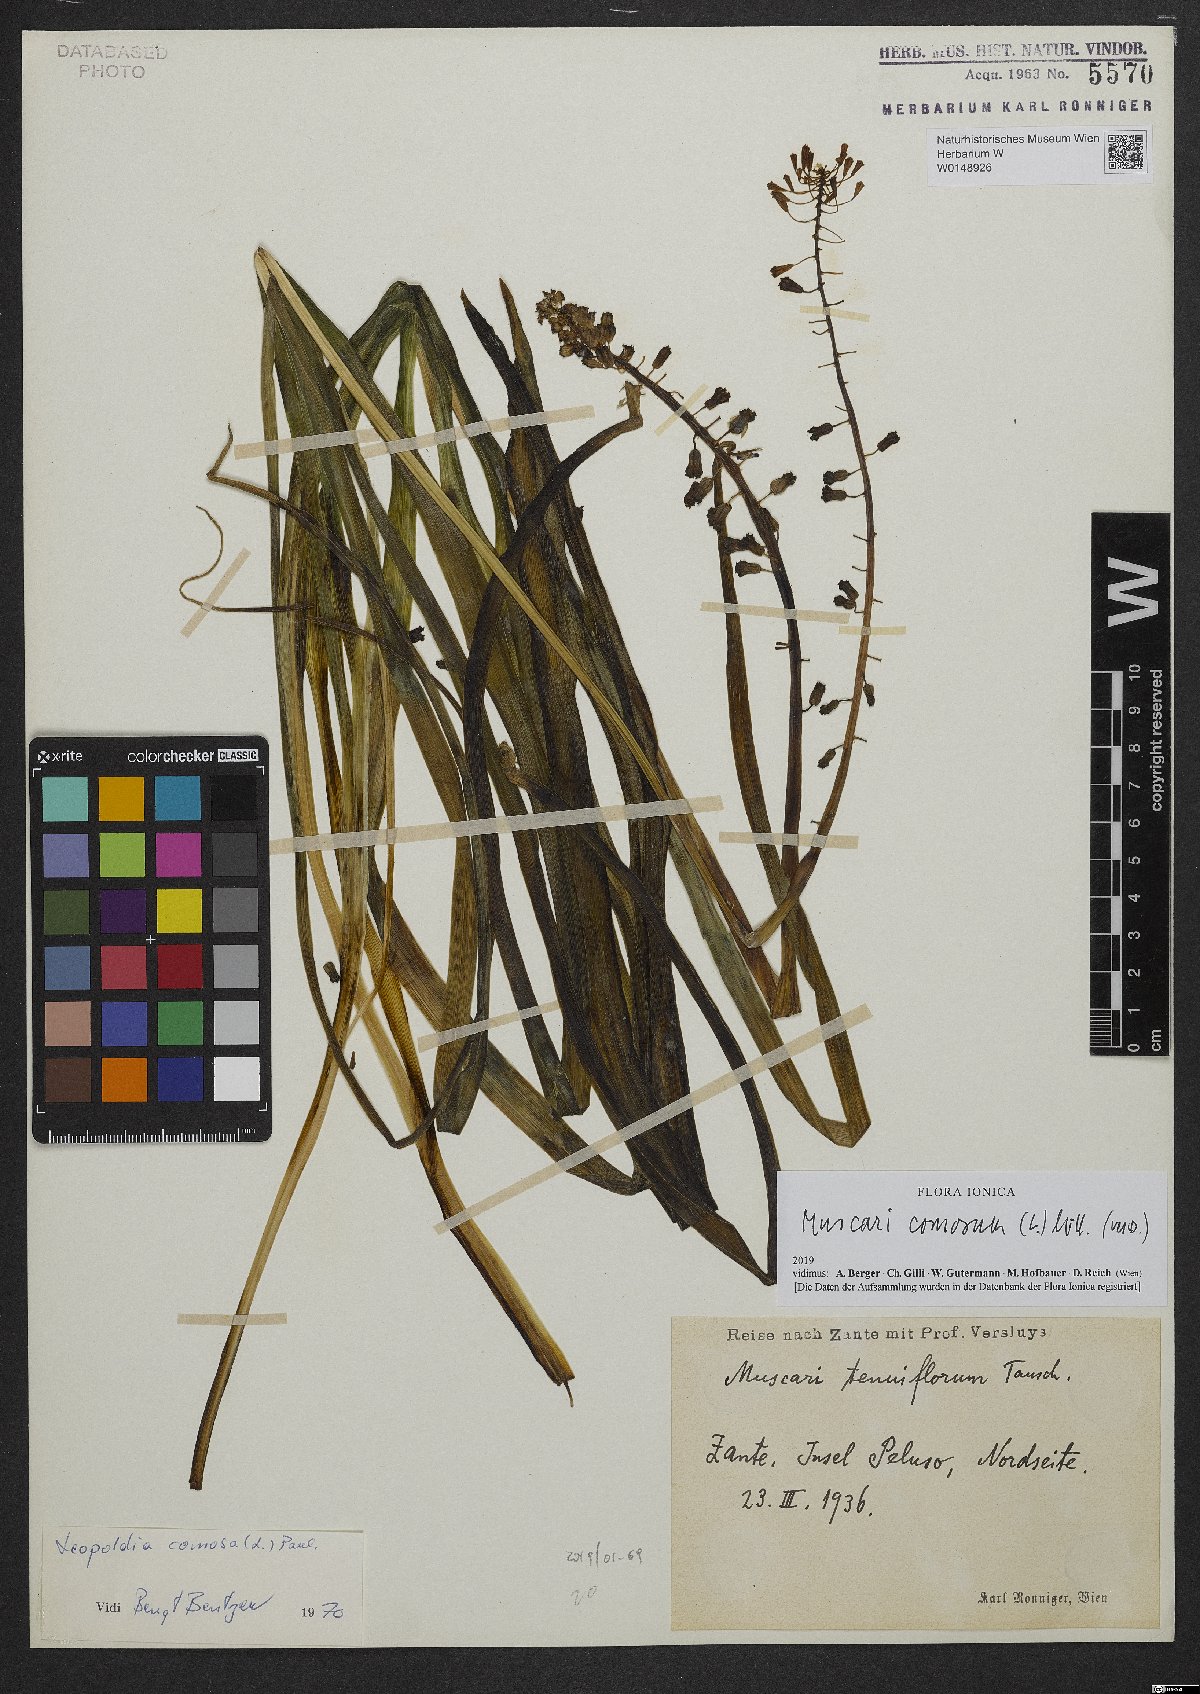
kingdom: Plantae
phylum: Tracheophyta
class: Liliopsida
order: Asparagales
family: Asparagaceae
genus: Muscari
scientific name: Muscari comosum
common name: Tassel hyacinth
